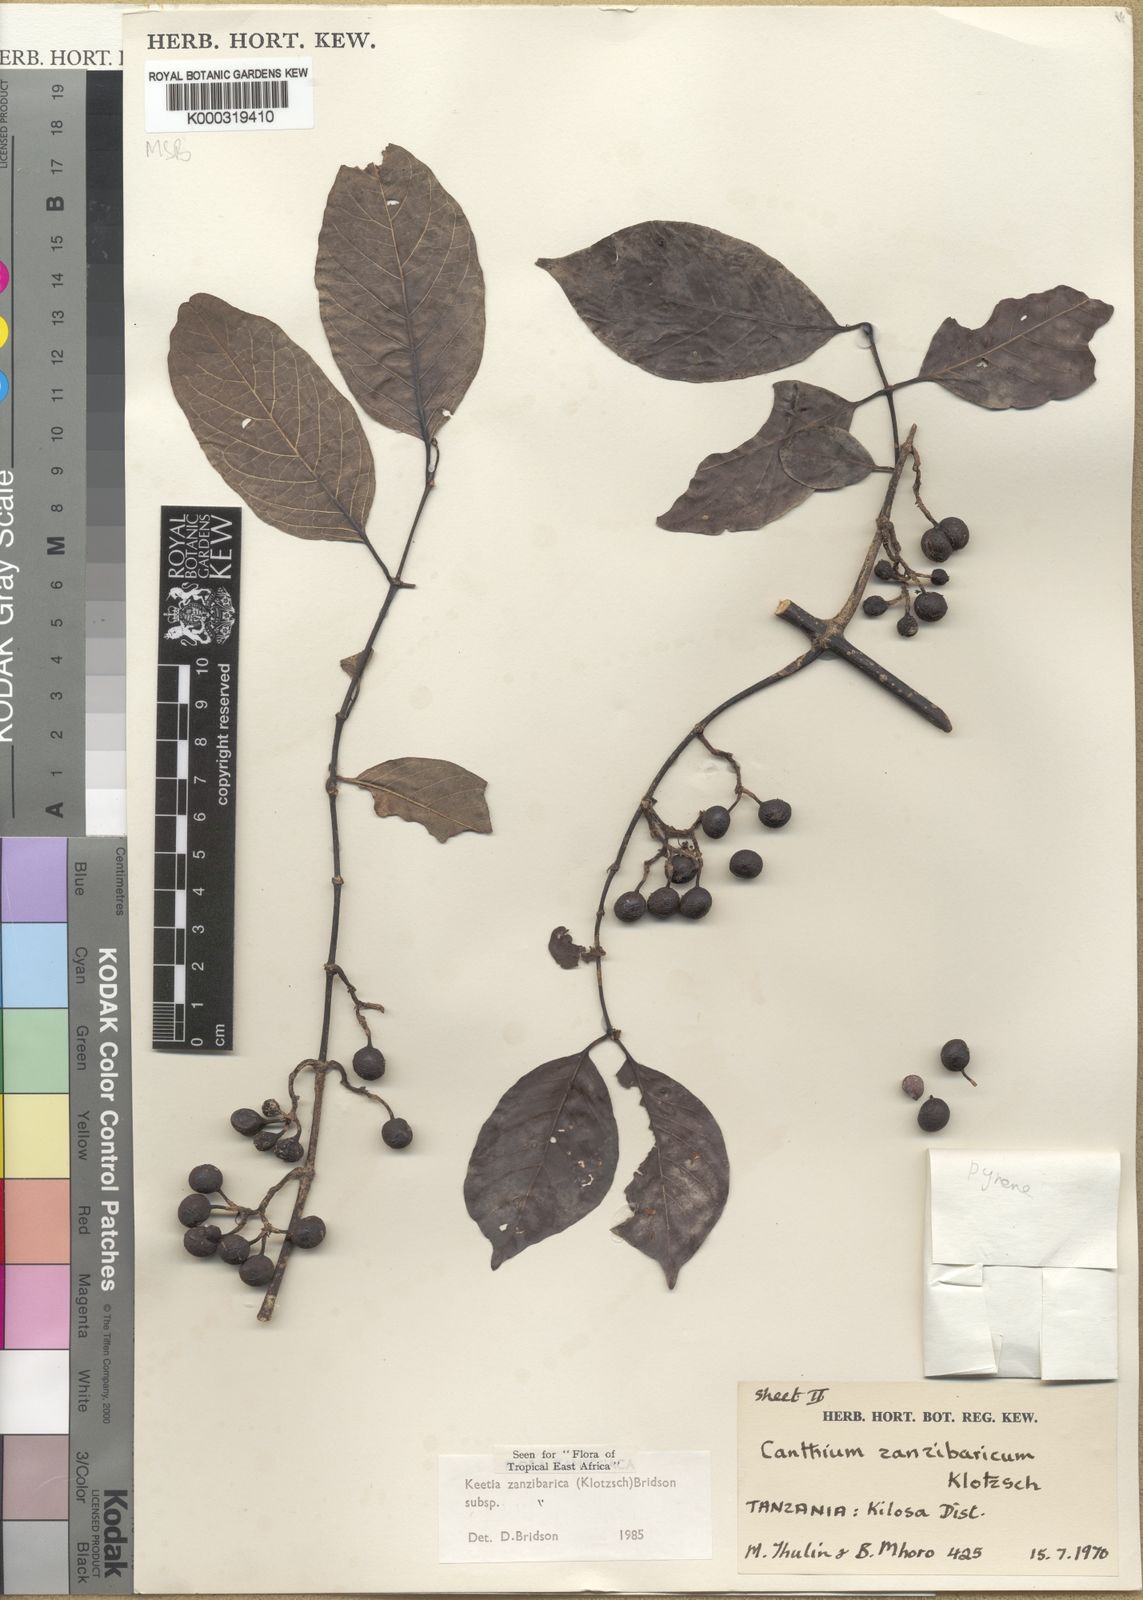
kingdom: Plantae
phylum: Tracheophyta
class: Magnoliopsida
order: Gentianales
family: Rubiaceae
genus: Keetia
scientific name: Keetia zanzibarica
